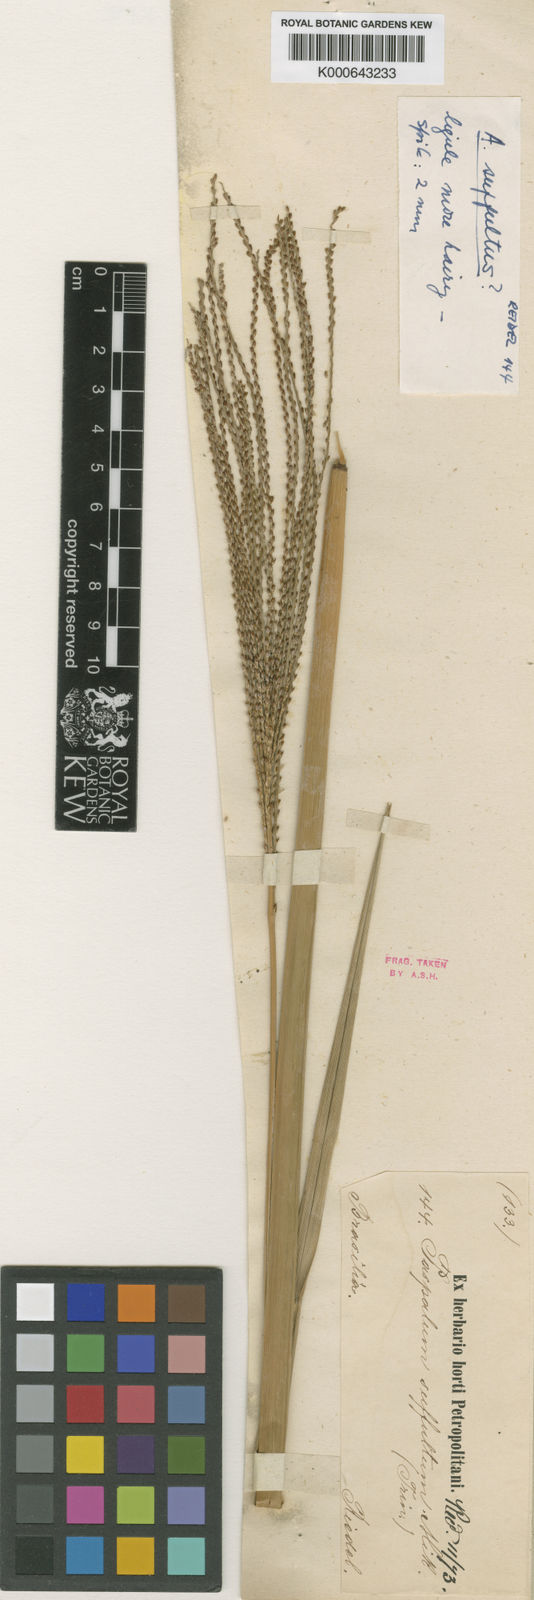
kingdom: Plantae
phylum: Tracheophyta
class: Liliopsida
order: Poales
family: Poaceae
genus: Axonopus
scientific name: Axonopus suffultus
